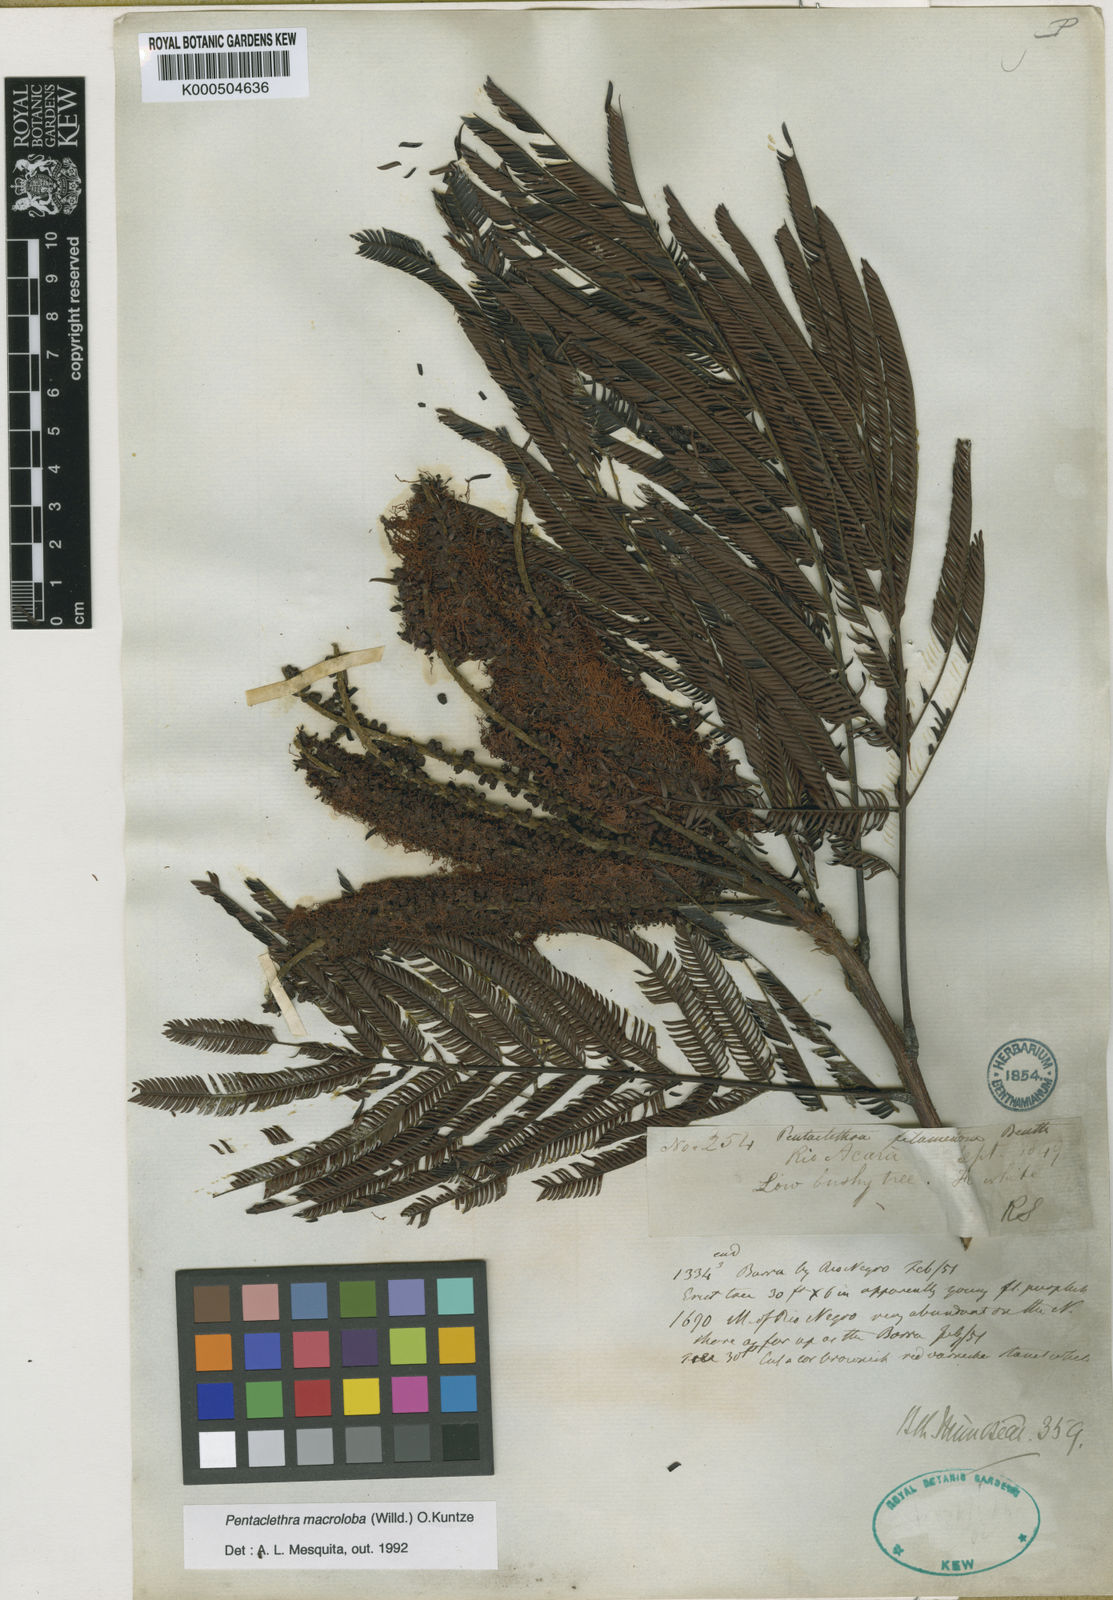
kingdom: Plantae
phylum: Tracheophyta
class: Magnoliopsida
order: Fabales
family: Fabaceae
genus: Pentaclethra
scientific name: Pentaclethra macroloba
